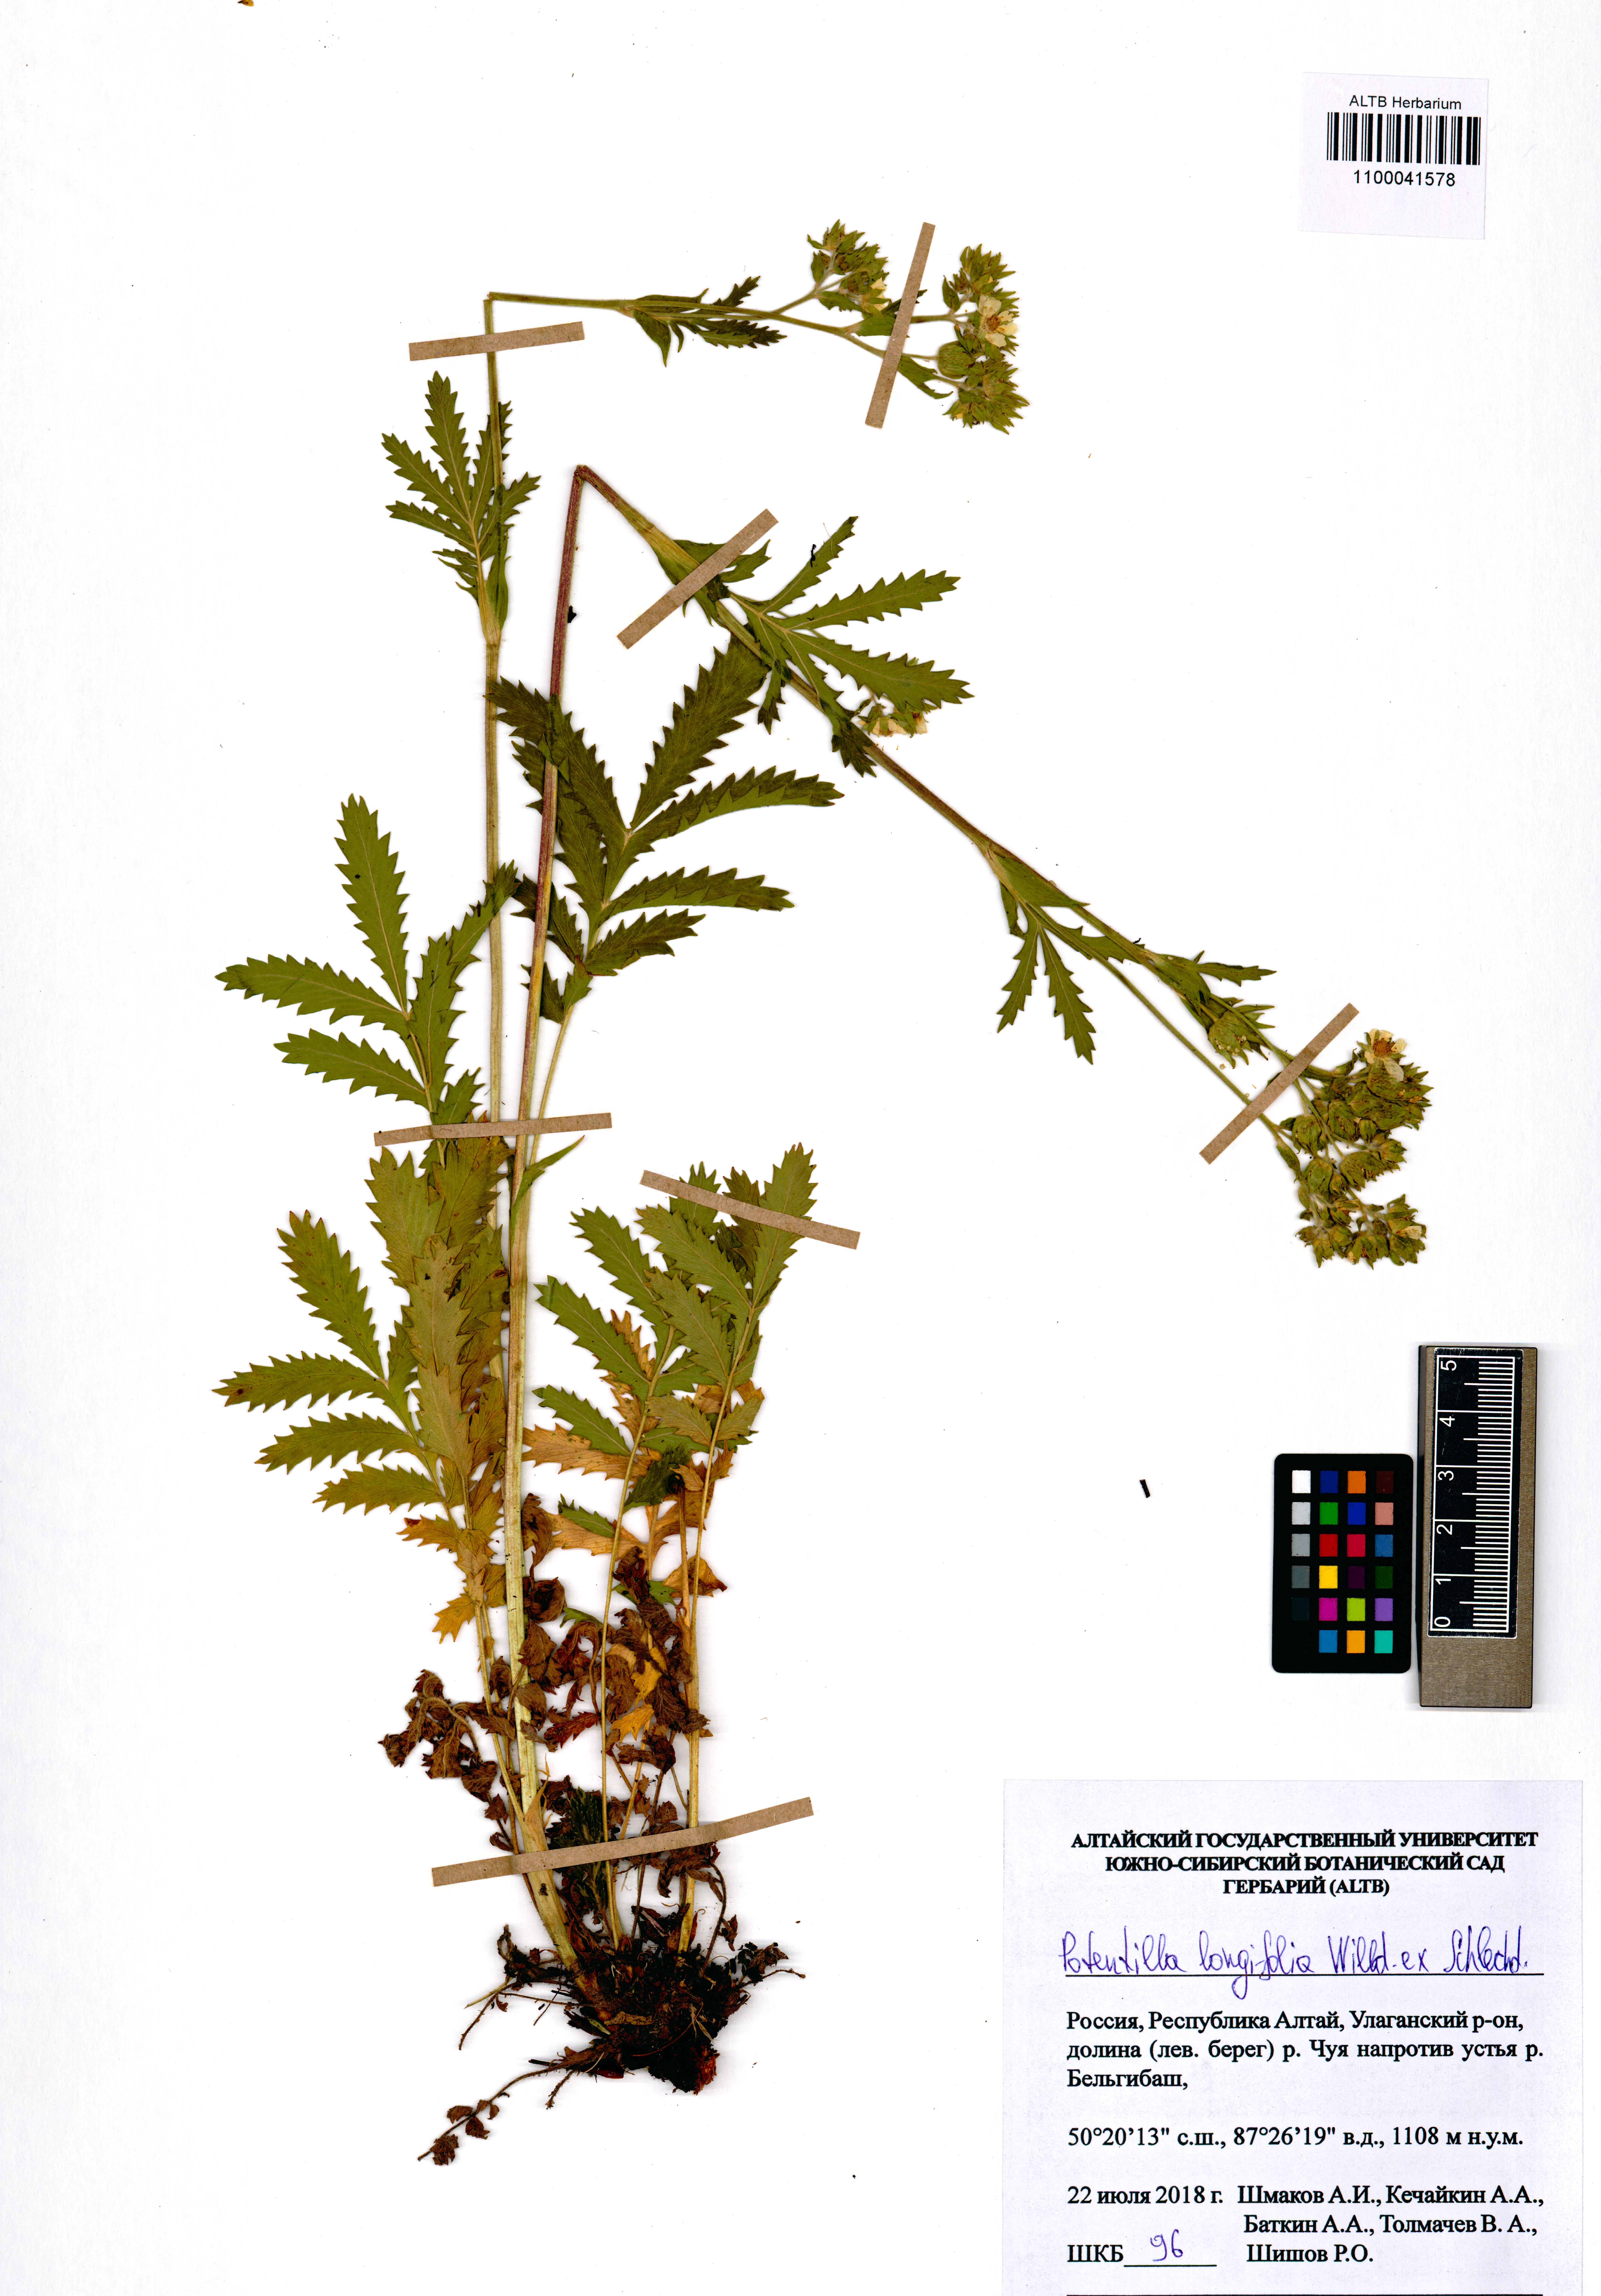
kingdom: Plantae
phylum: Tracheophyta
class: Magnoliopsida
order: Rosales
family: Rosaceae
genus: Potentilla
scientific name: Potentilla longifolia
